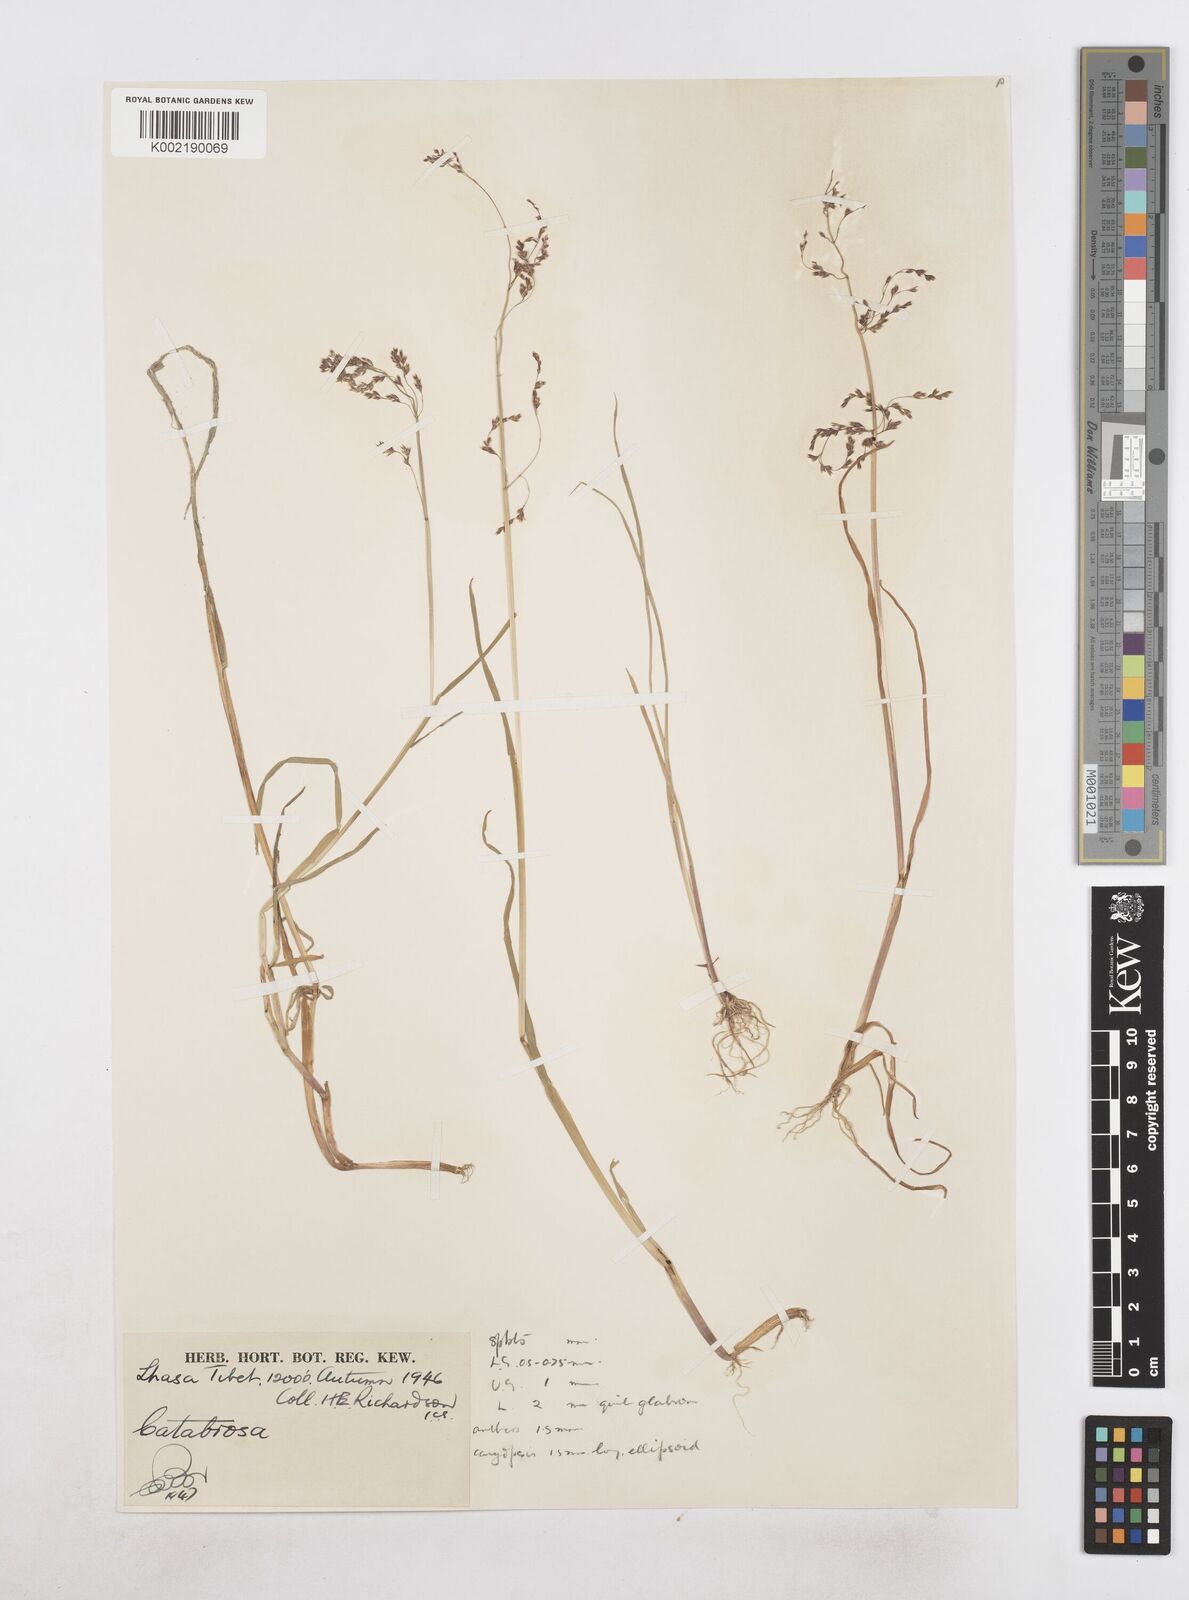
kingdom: Plantae
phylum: Tracheophyta
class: Liliopsida
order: Poales
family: Poaceae
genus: Catabrosa
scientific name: Catabrosa aquatica
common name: Whorl-grass
